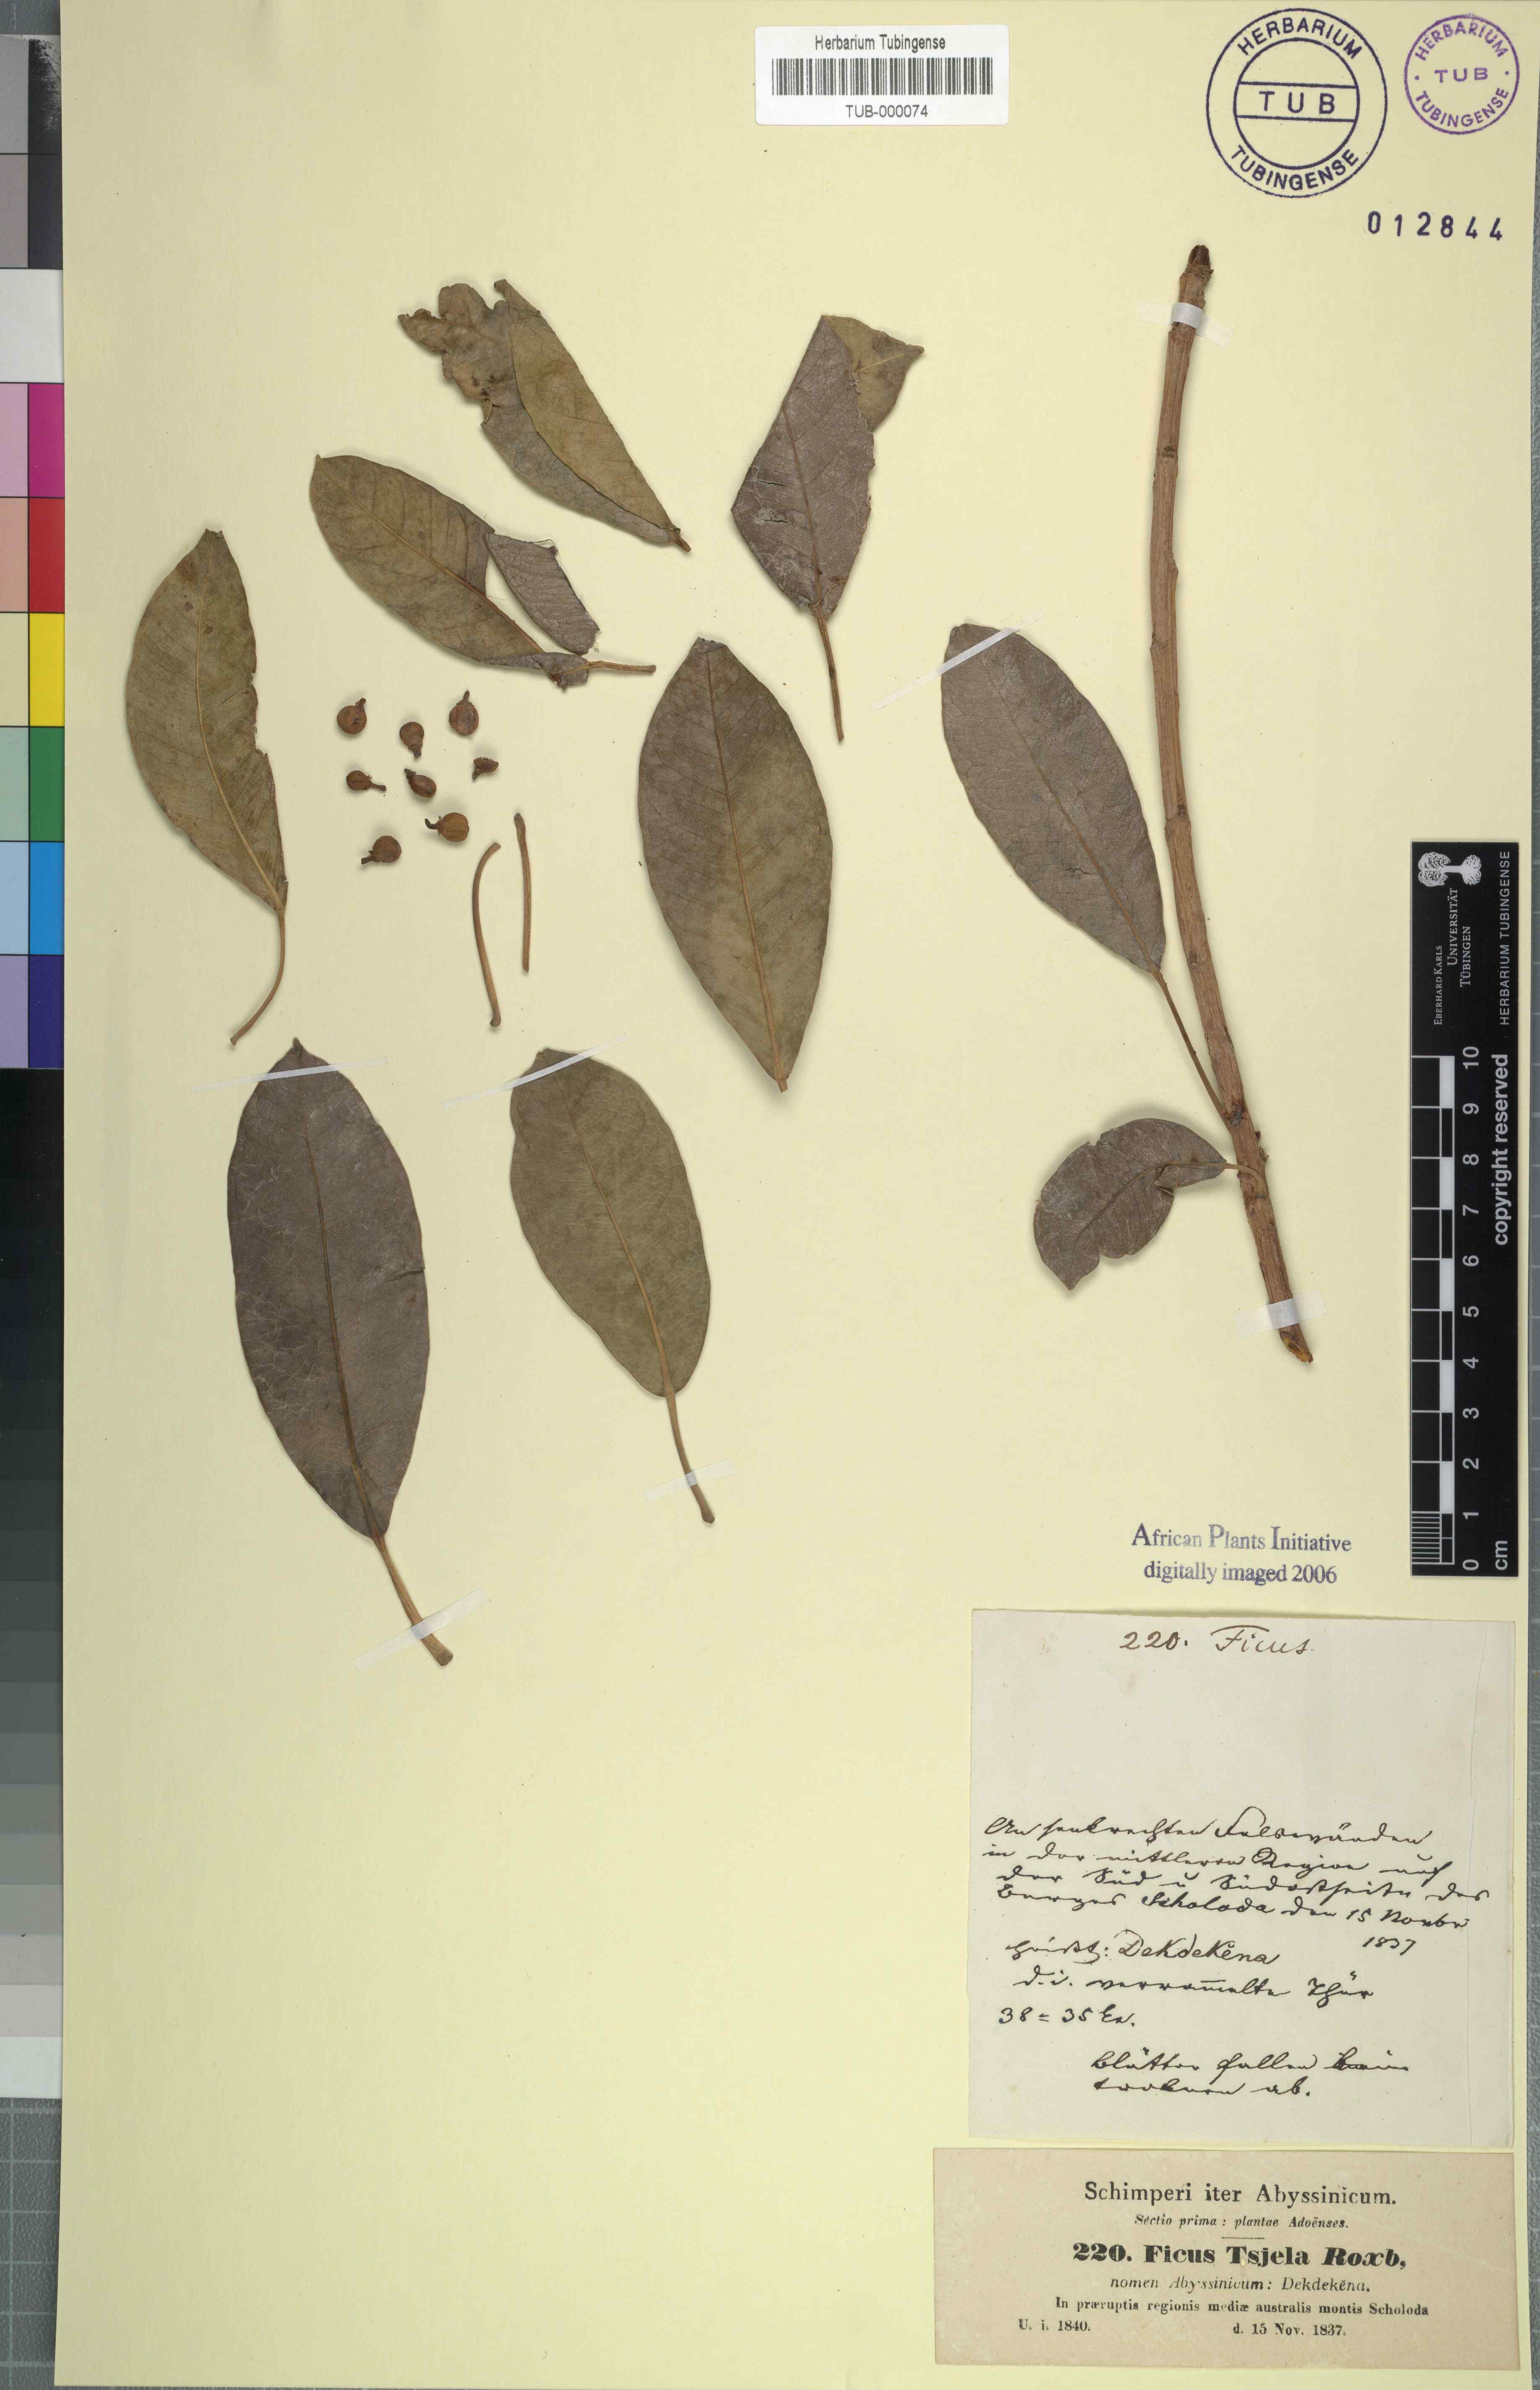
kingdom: Plantae
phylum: Tracheophyta
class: Magnoliopsida
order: Rosales
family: Moraceae
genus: Ficus
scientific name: Ficus amplissima
